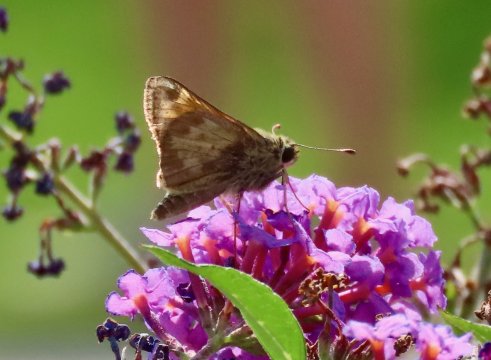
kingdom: Animalia
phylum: Arthropoda
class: Insecta
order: Lepidoptera
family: Hesperiidae
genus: Atalopedes
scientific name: Atalopedes campestris
